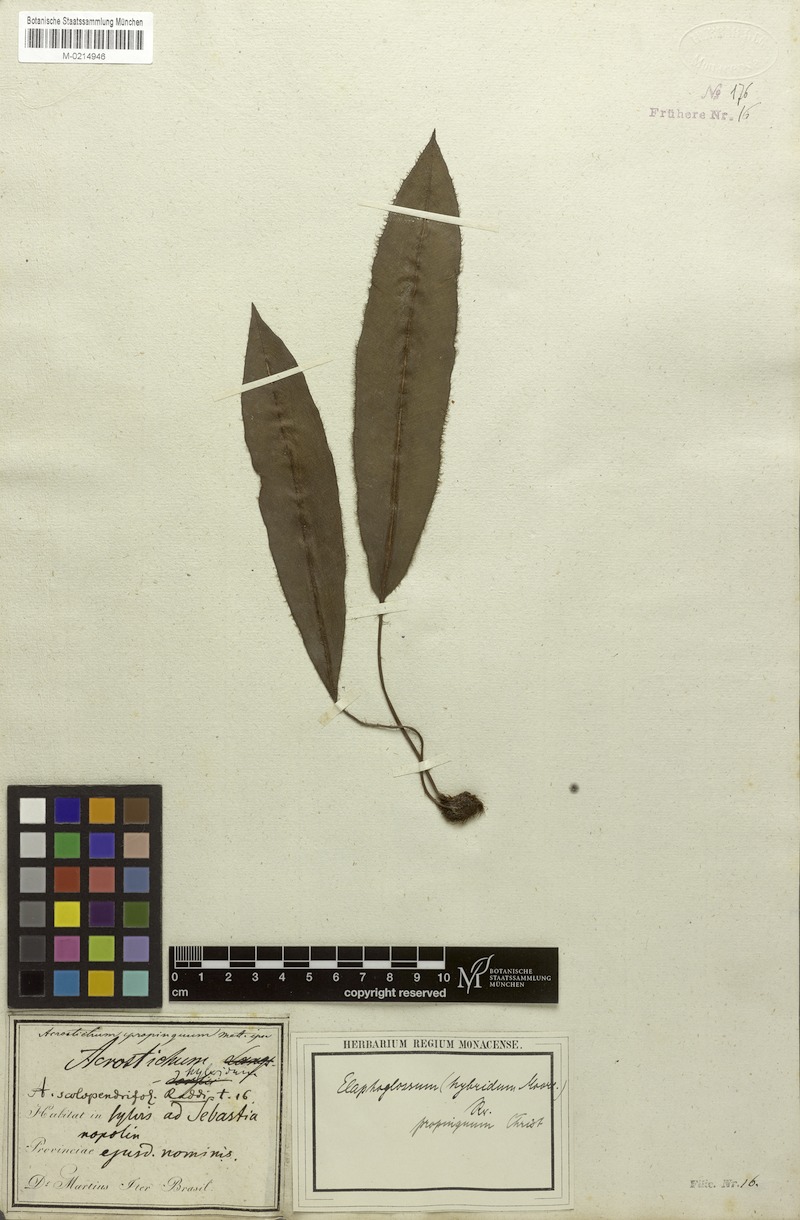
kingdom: Plantae
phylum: Tracheophyta
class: Polypodiopsida
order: Polypodiales
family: Dryopteridaceae
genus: Elaphoglossum
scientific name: Elaphoglossum hybridum
